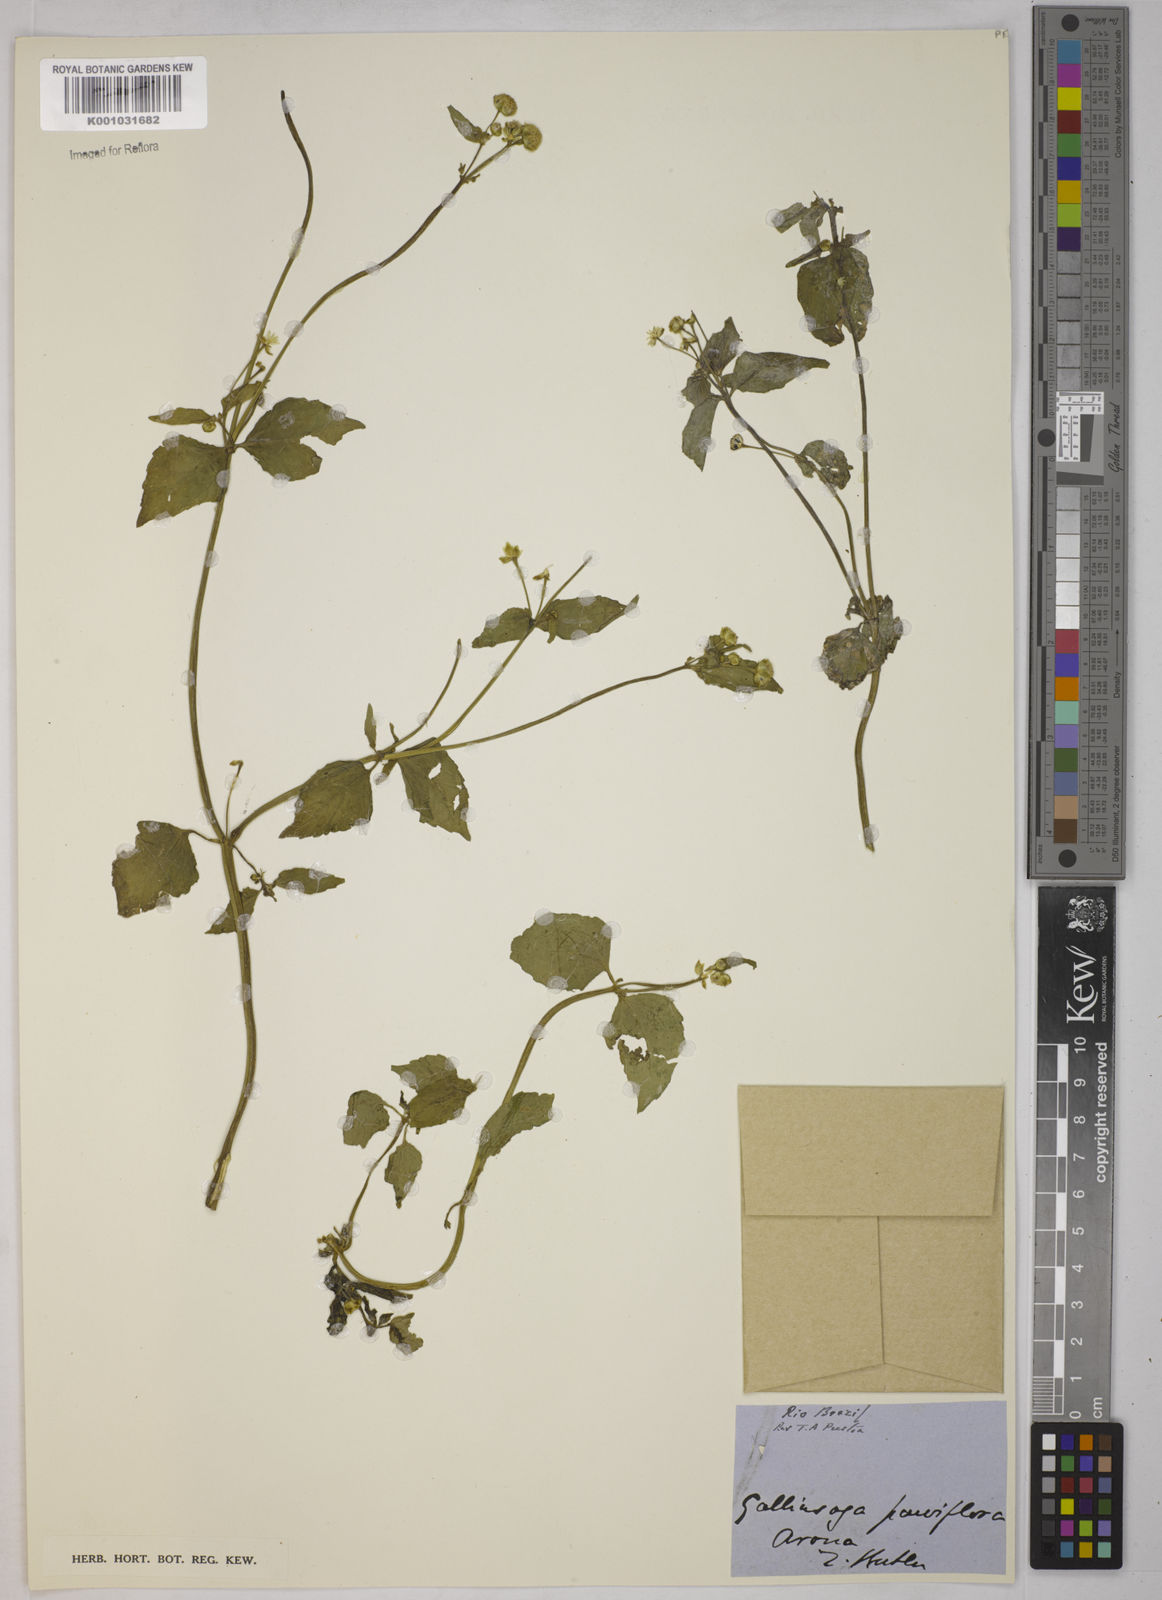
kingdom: Plantae
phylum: Tracheophyta
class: Magnoliopsida
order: Asterales
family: Asteraceae
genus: Galinsoga
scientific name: Galinsoga parviflora
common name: Gallant soldier
